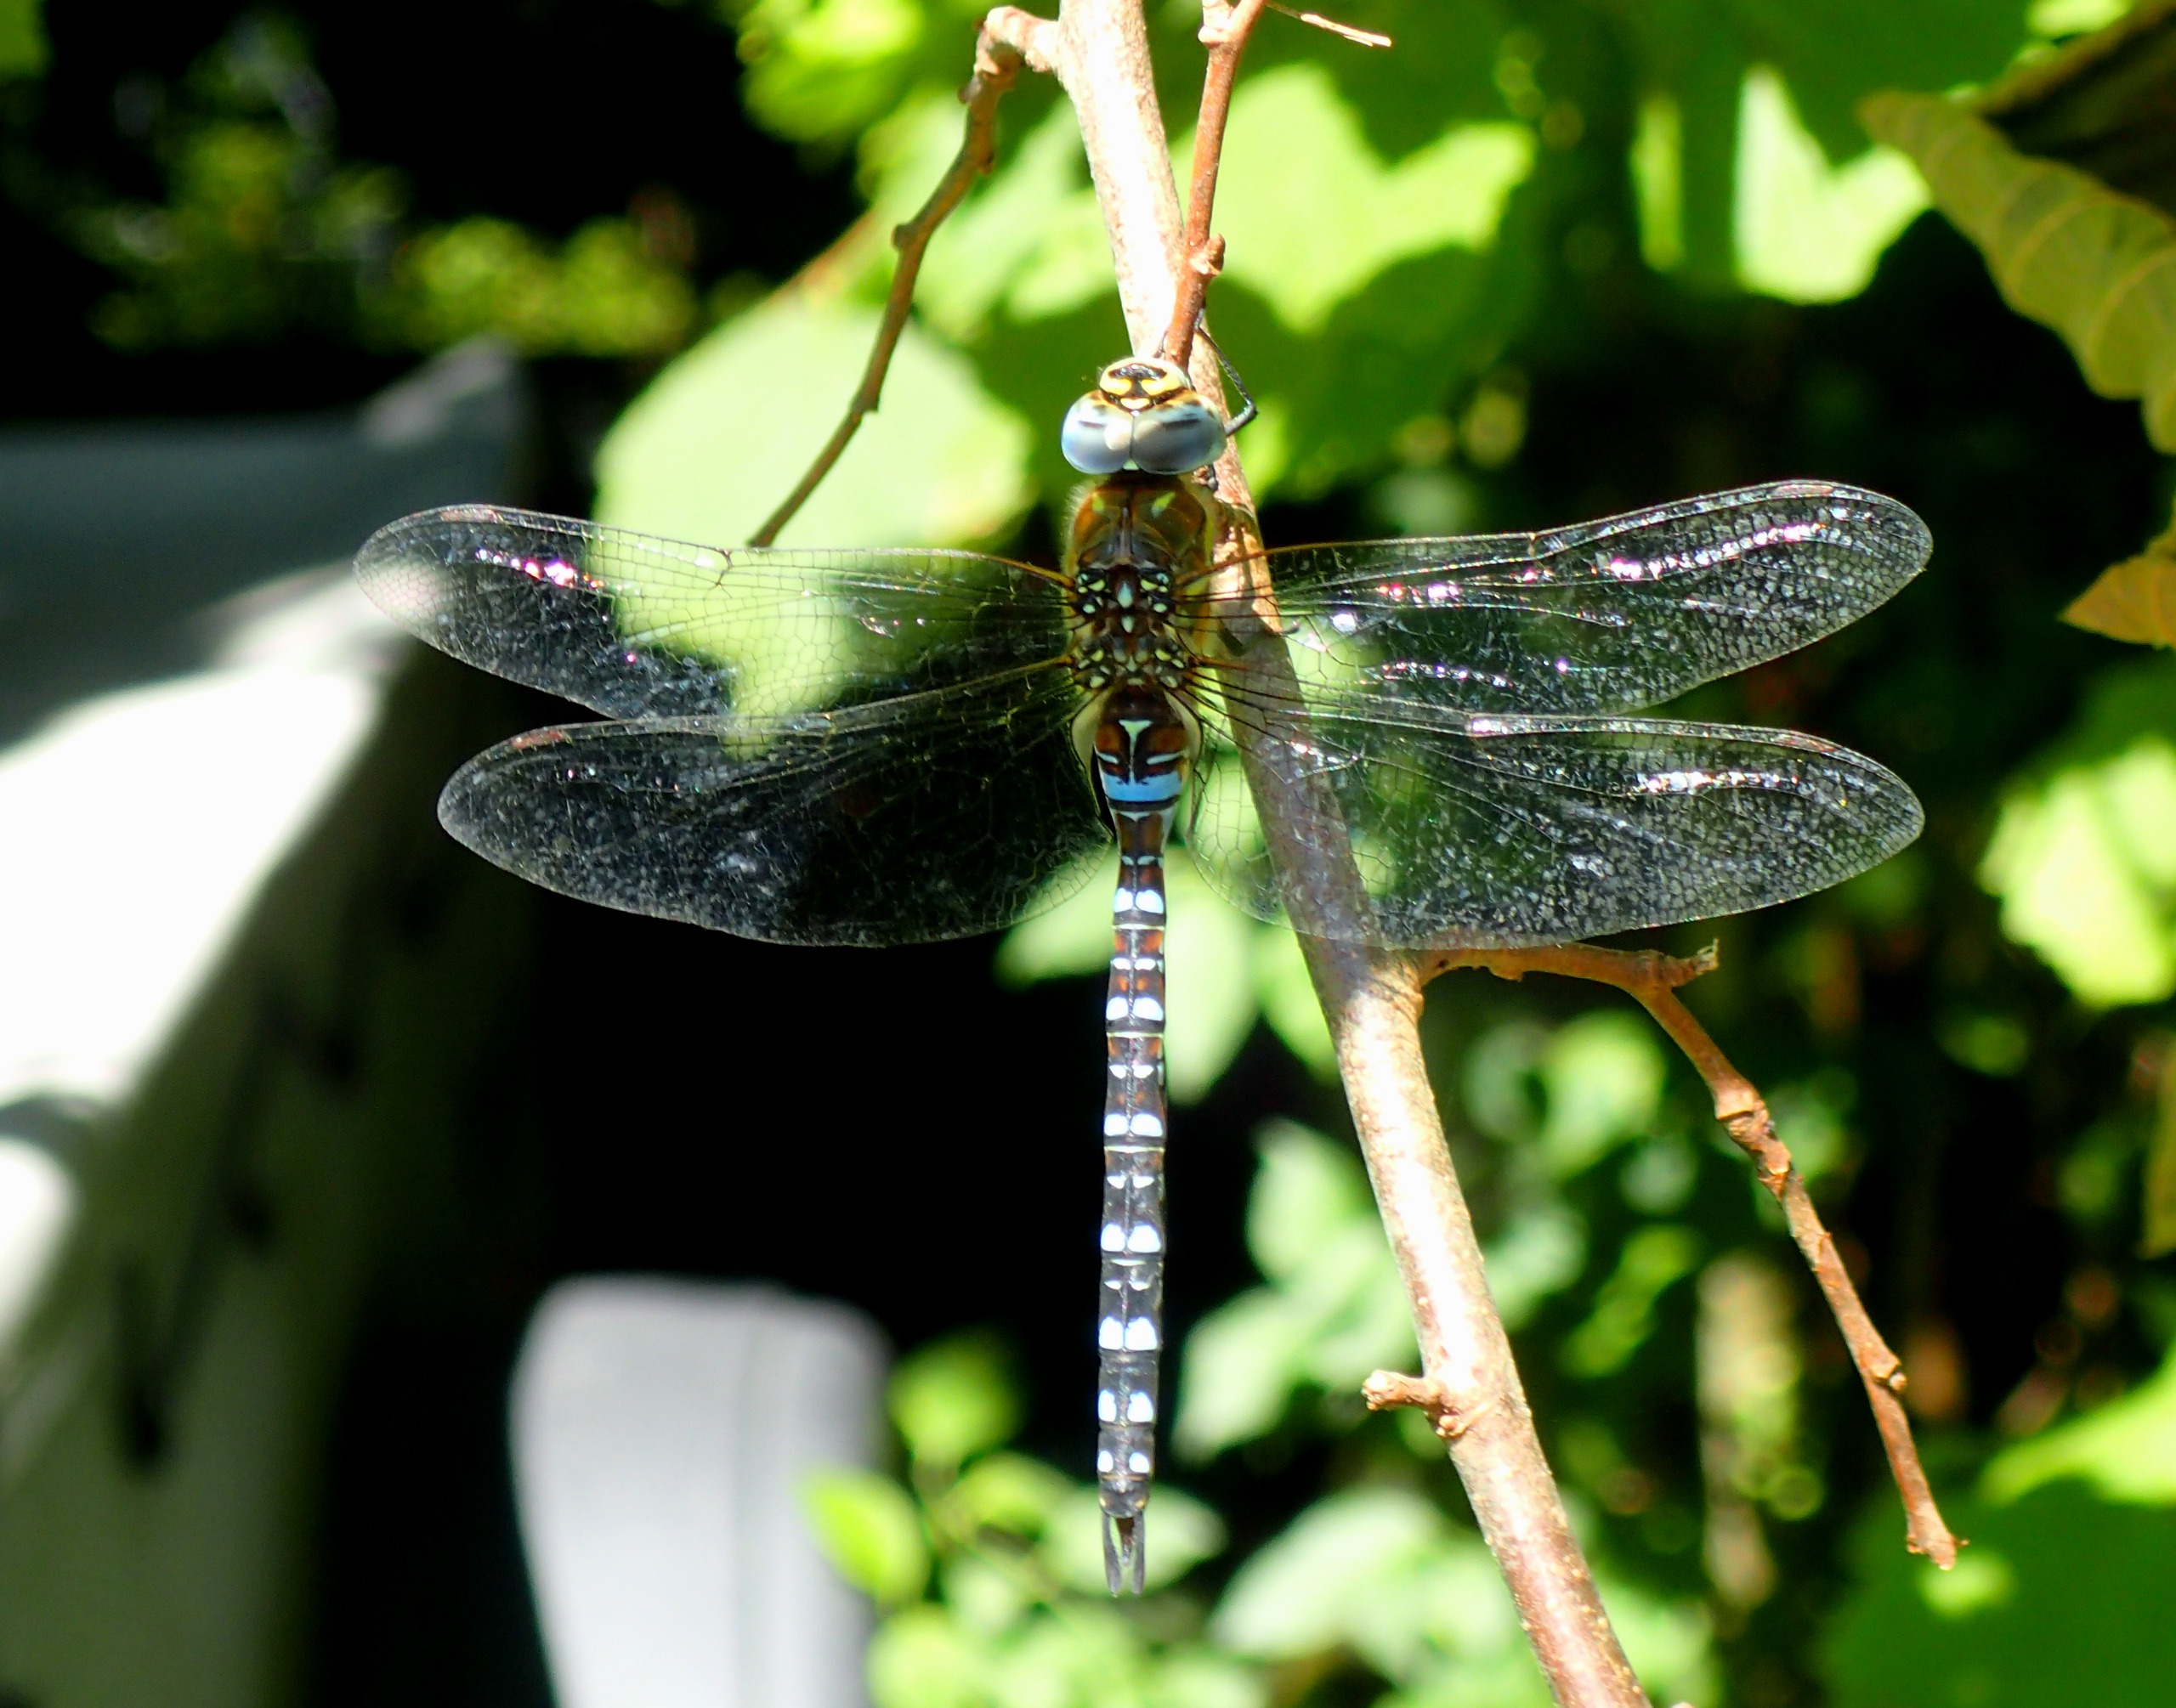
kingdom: Animalia
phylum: Arthropoda
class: Insecta
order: Odonata
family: Aeshnidae
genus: Aeshna
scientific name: Aeshna mixta
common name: Efterårs-mosaikguldsmed
